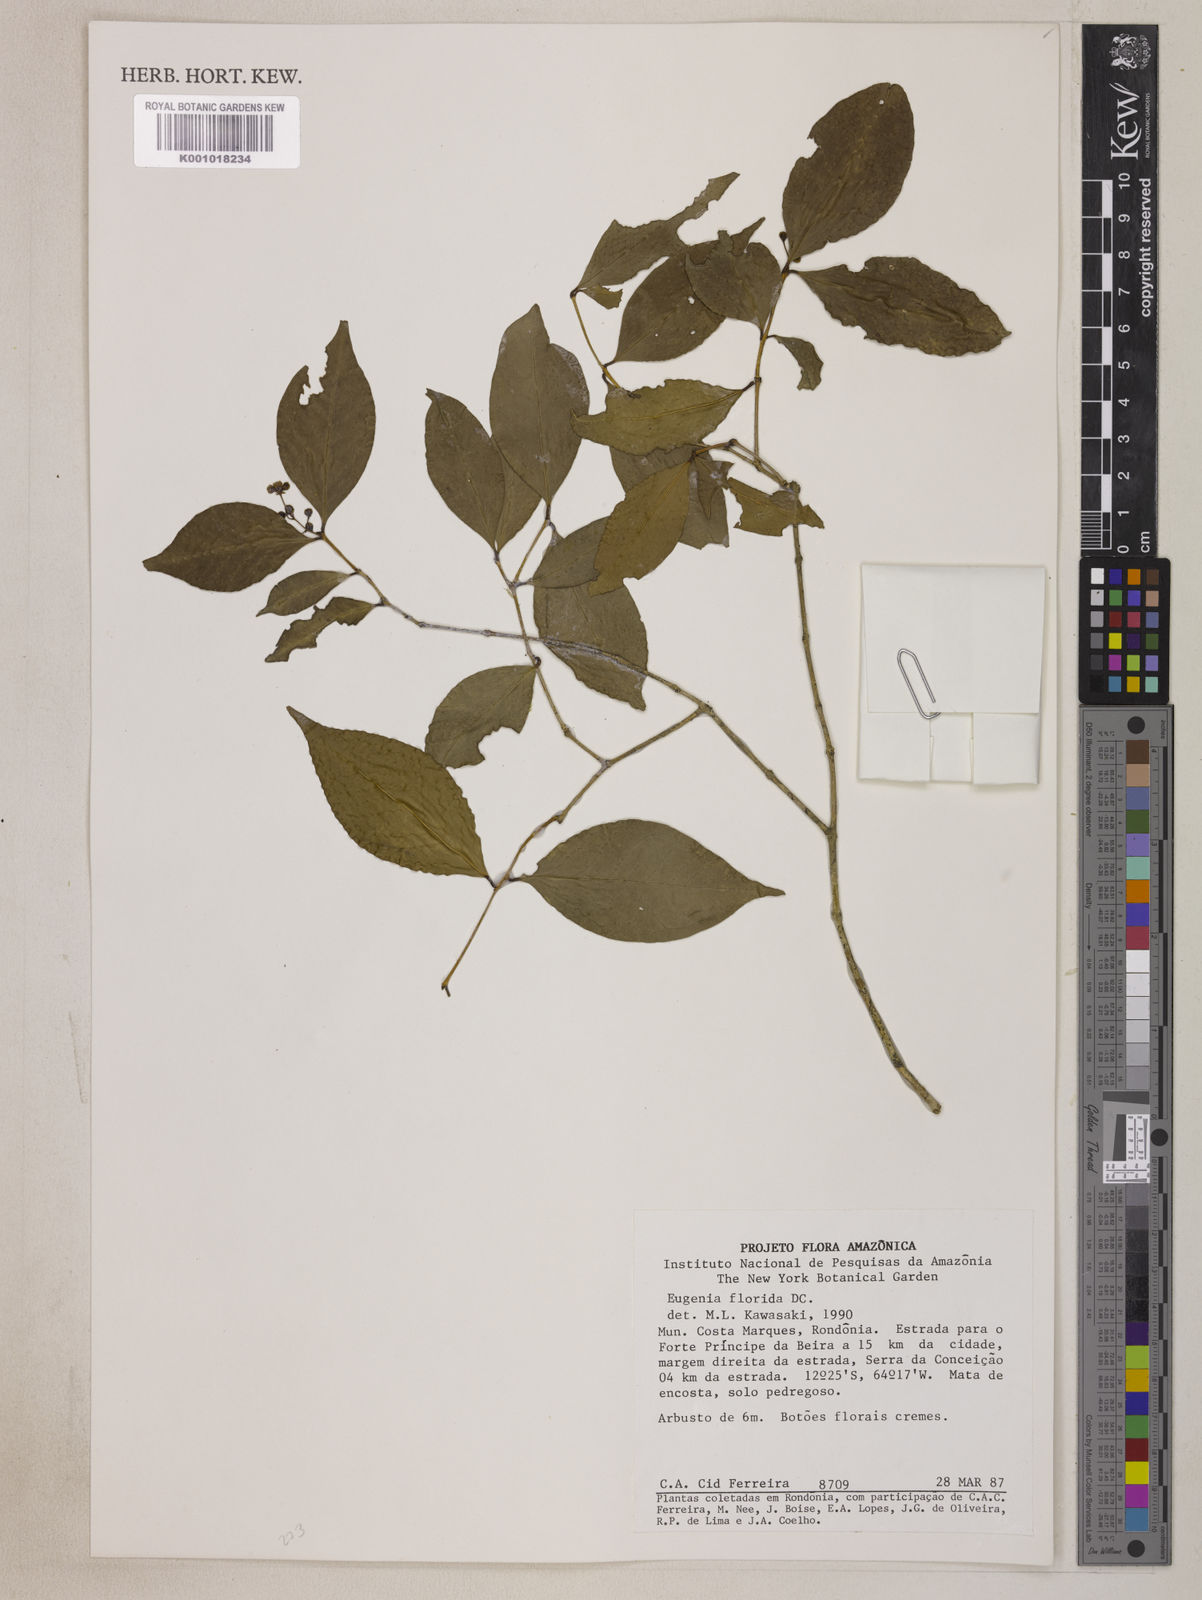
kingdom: Plantae
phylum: Tracheophyta
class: Magnoliopsida
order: Myrtales
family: Myrtaceae
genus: Eugenia
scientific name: Eugenia florida
